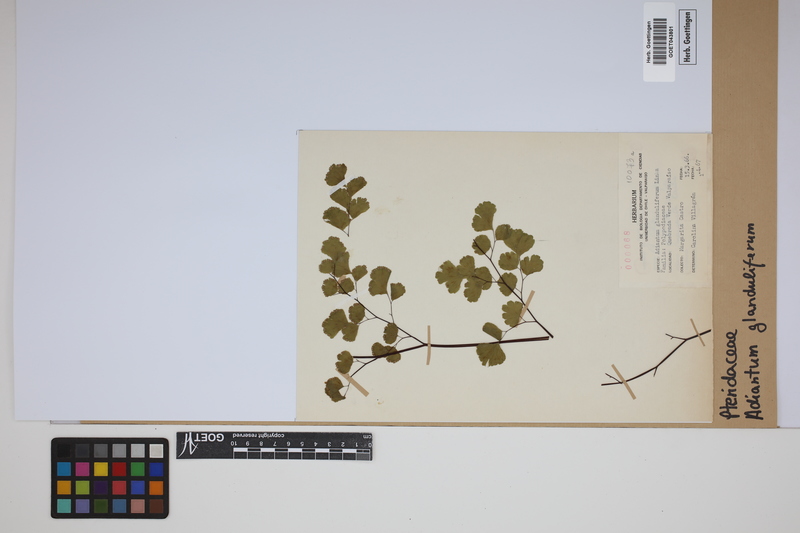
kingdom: Plantae
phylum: Tracheophyta
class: Polypodiopsida
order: Polypodiales
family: Pteridaceae
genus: Adiantum
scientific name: Adiantum chilense
